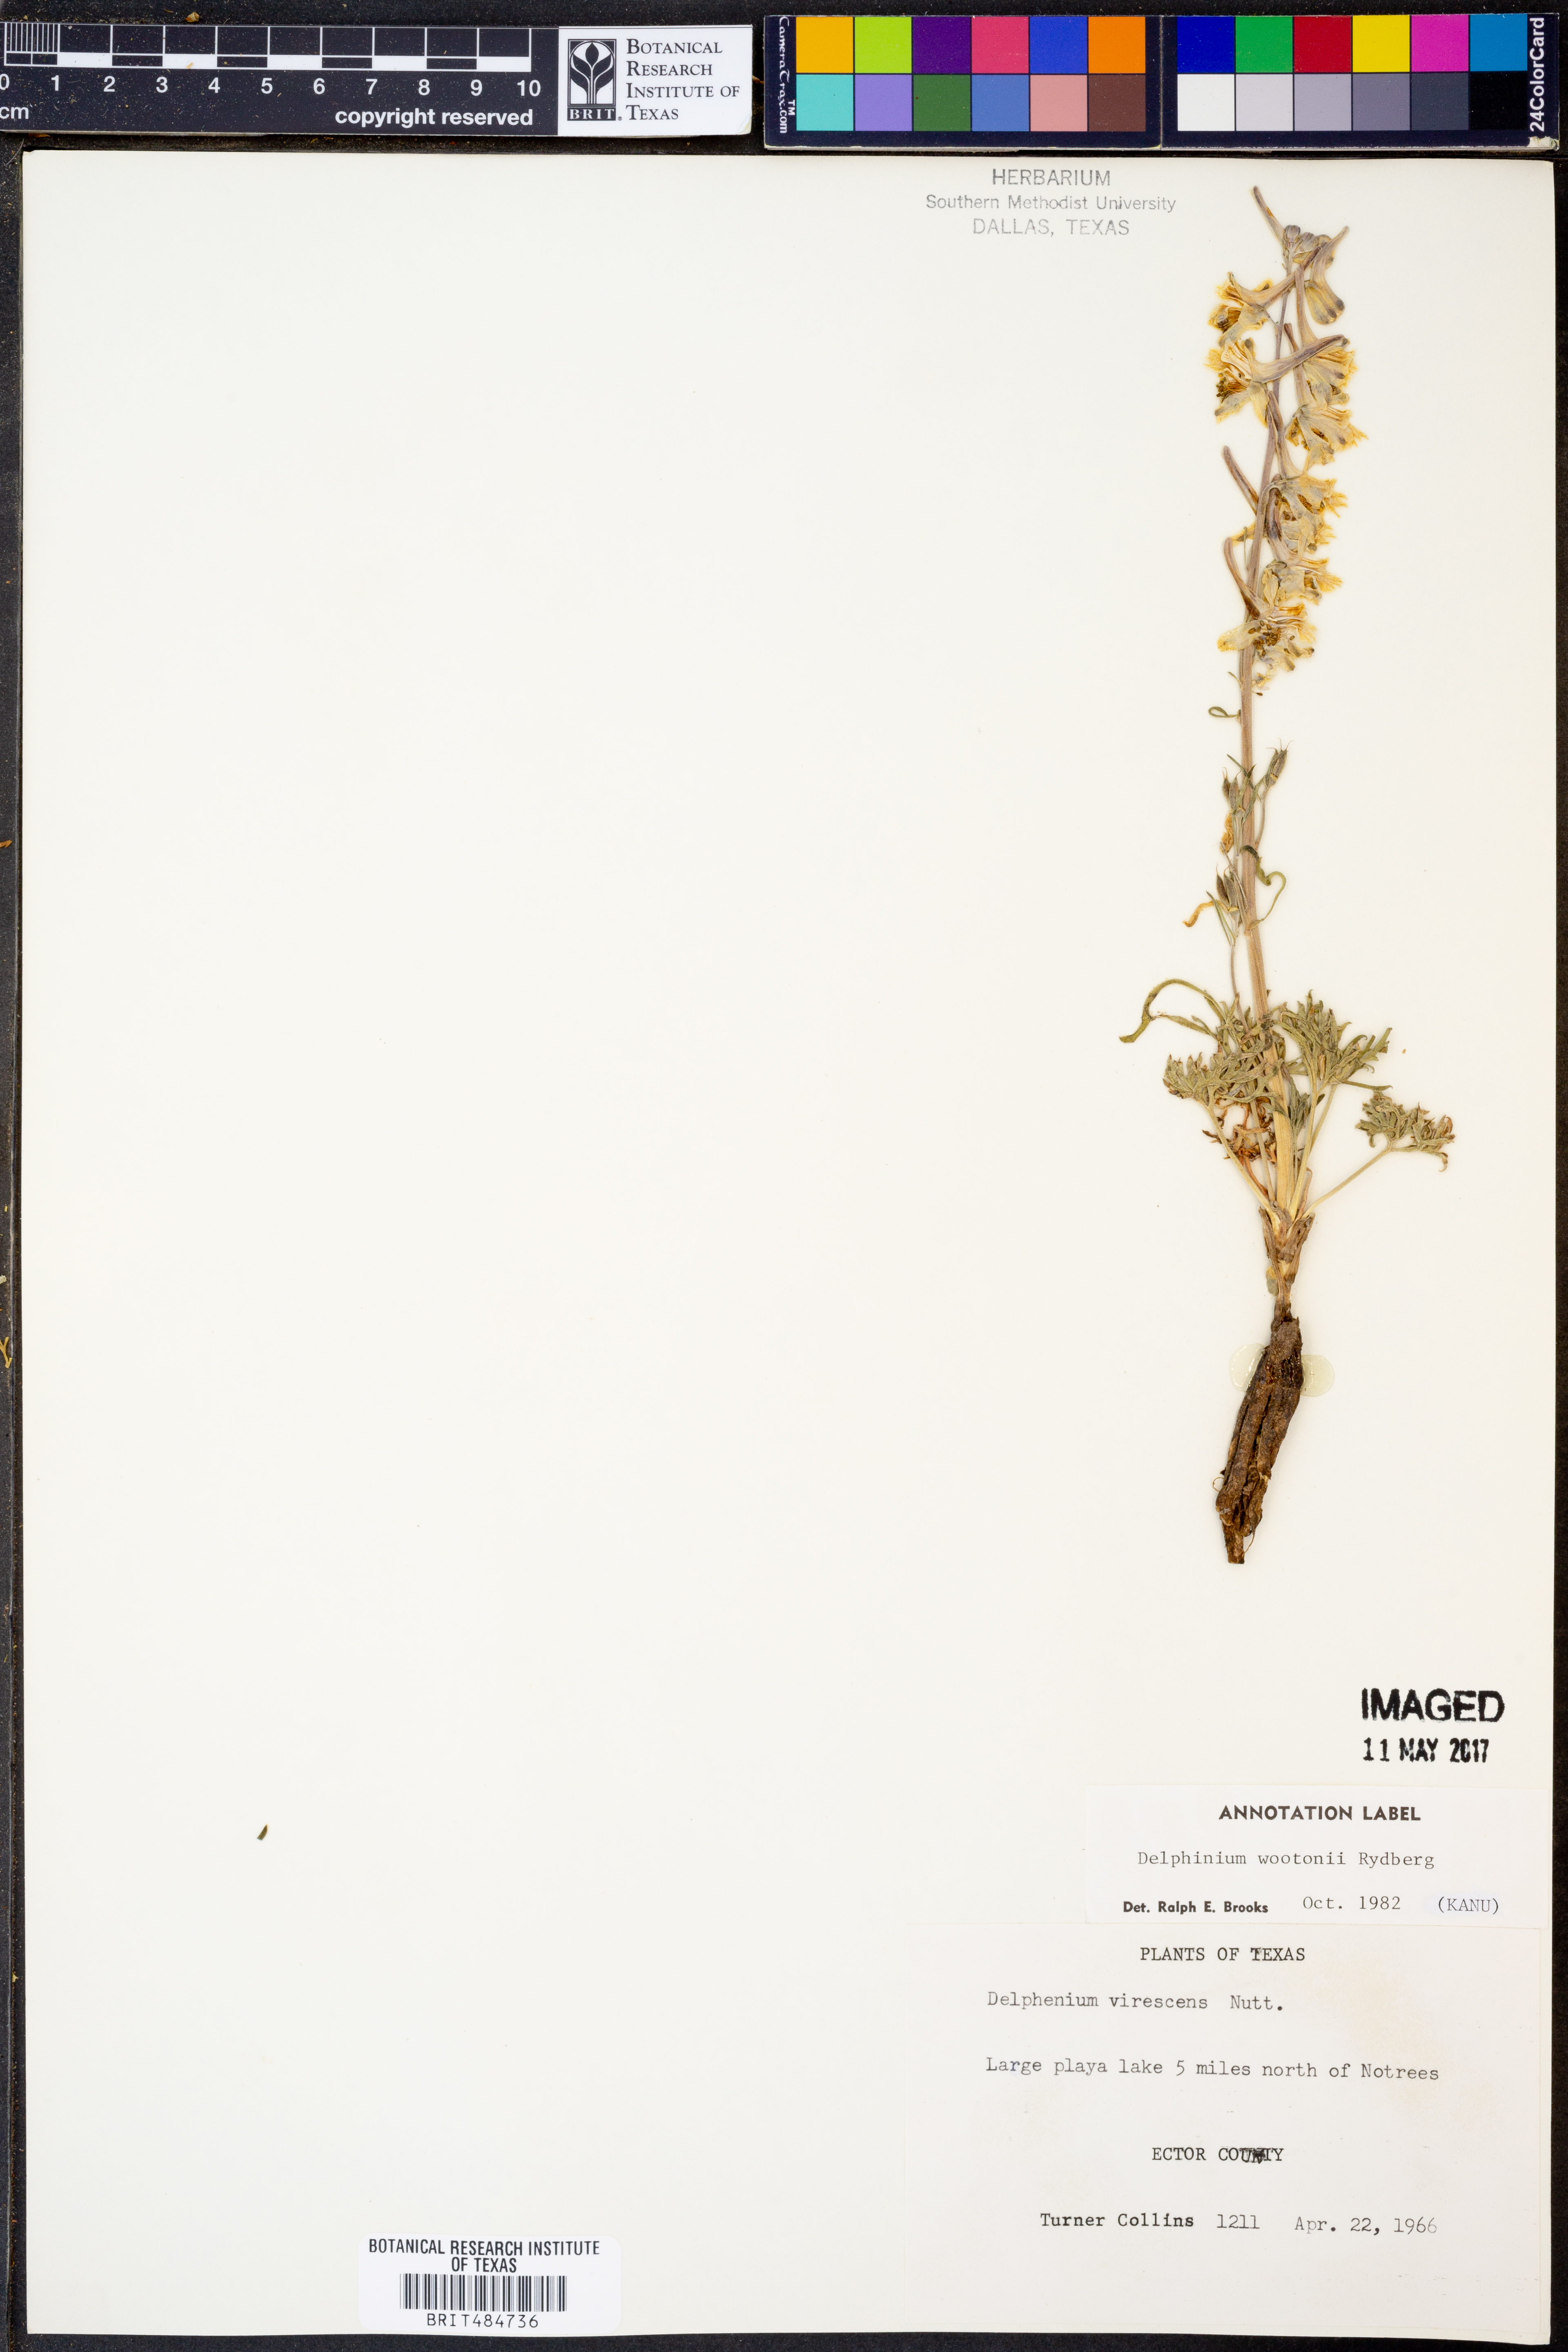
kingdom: Plantae
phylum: Tracheophyta
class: Magnoliopsida
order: Ranunculales
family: Ranunculaceae
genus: Delphinium
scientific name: Delphinium wootonii
